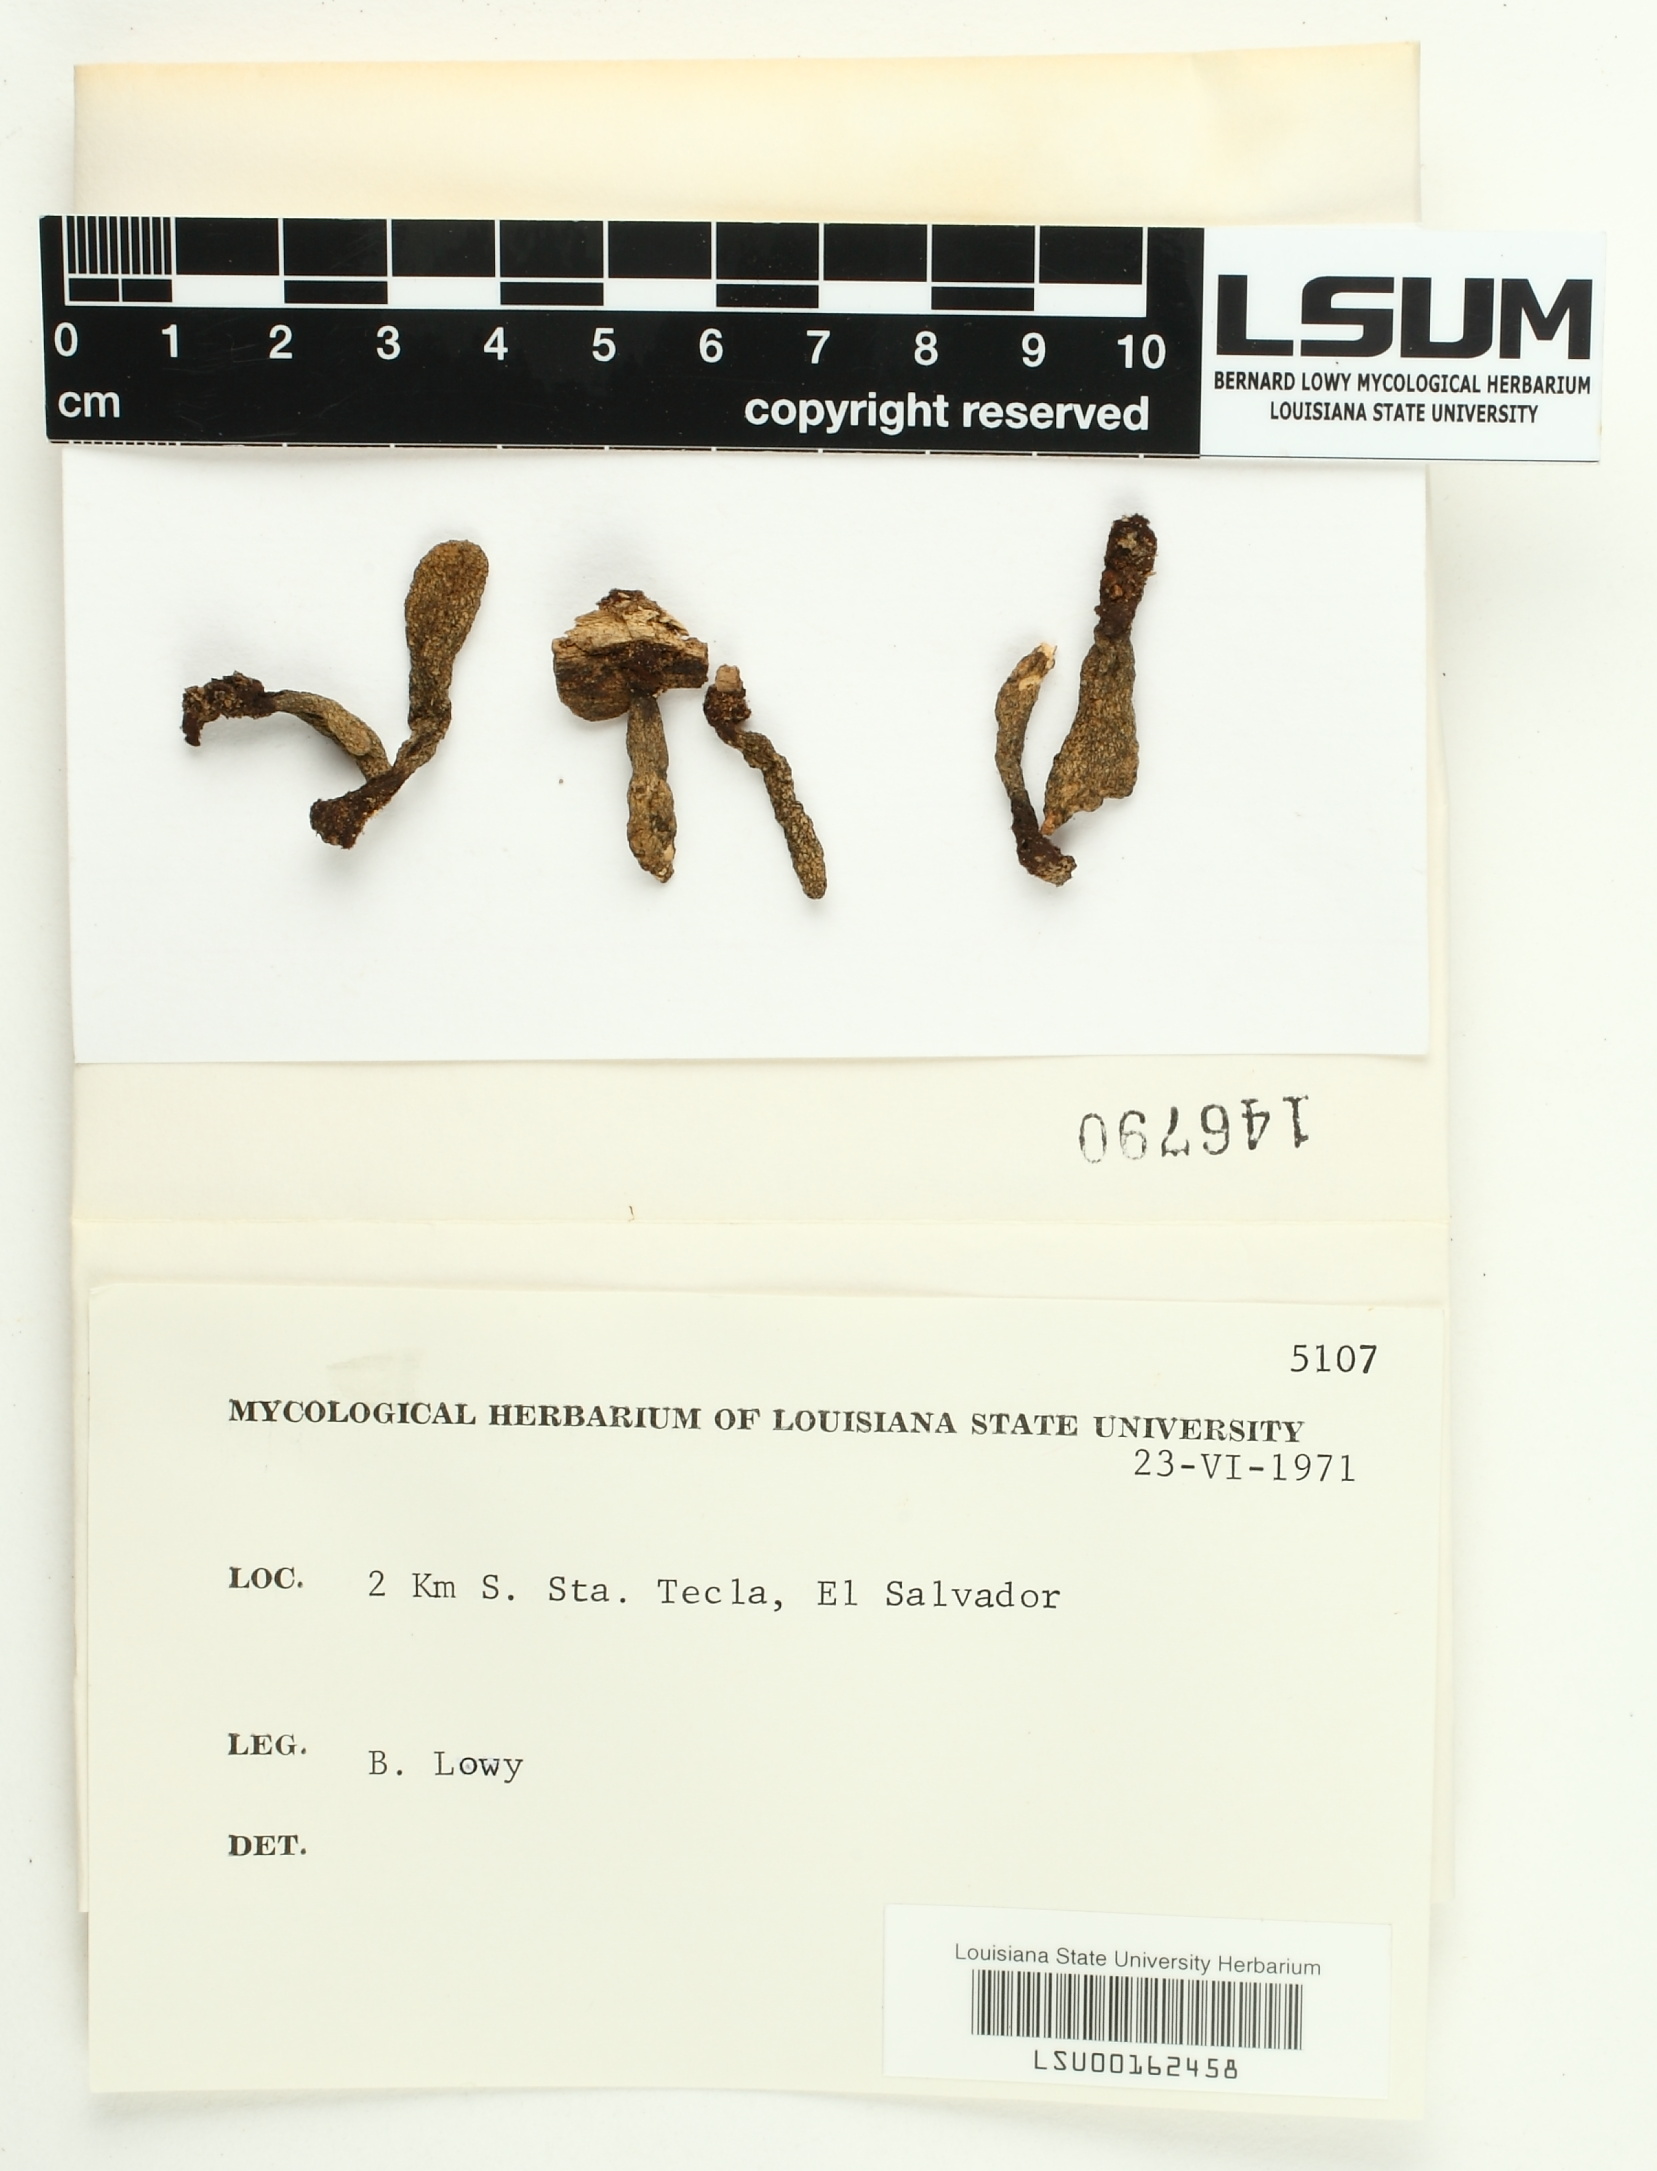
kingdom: Fungi
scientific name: Fungi
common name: Fungi
